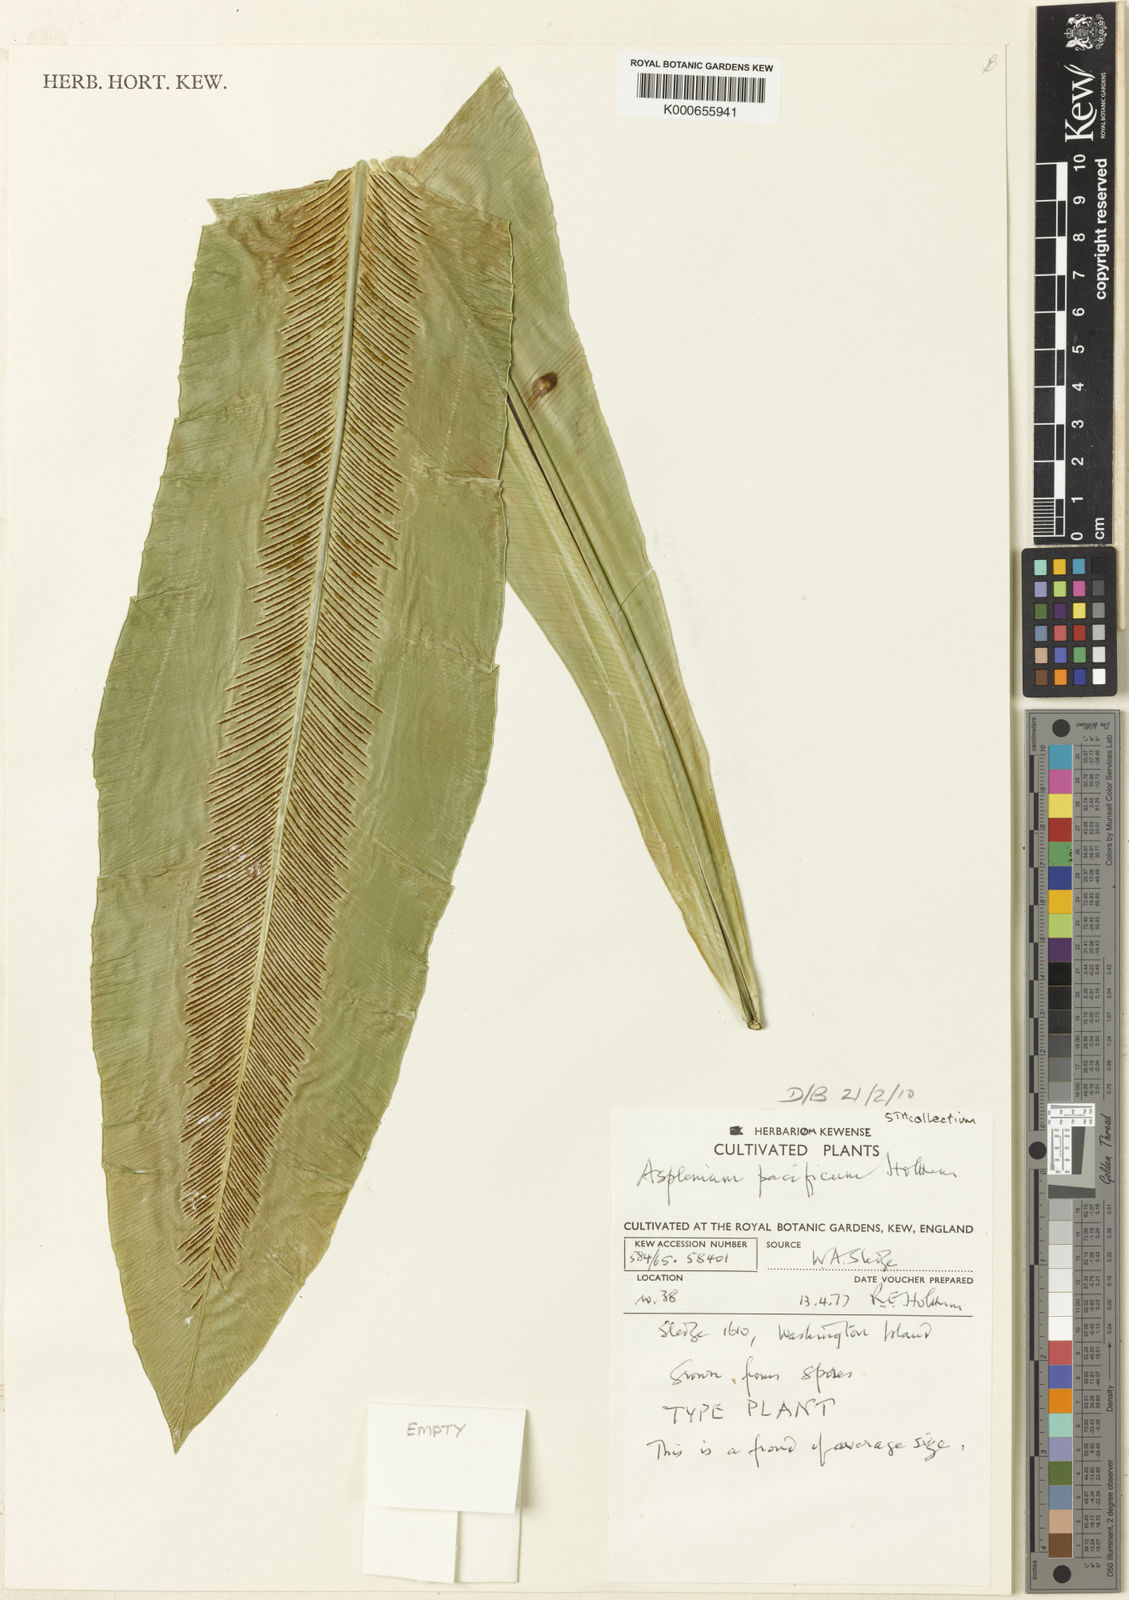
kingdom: Plantae
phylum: Tracheophyta
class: Polypodiopsida
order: Polypodiales
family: Aspleniaceae
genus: Asplenium
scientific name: Asplenium pacificum
